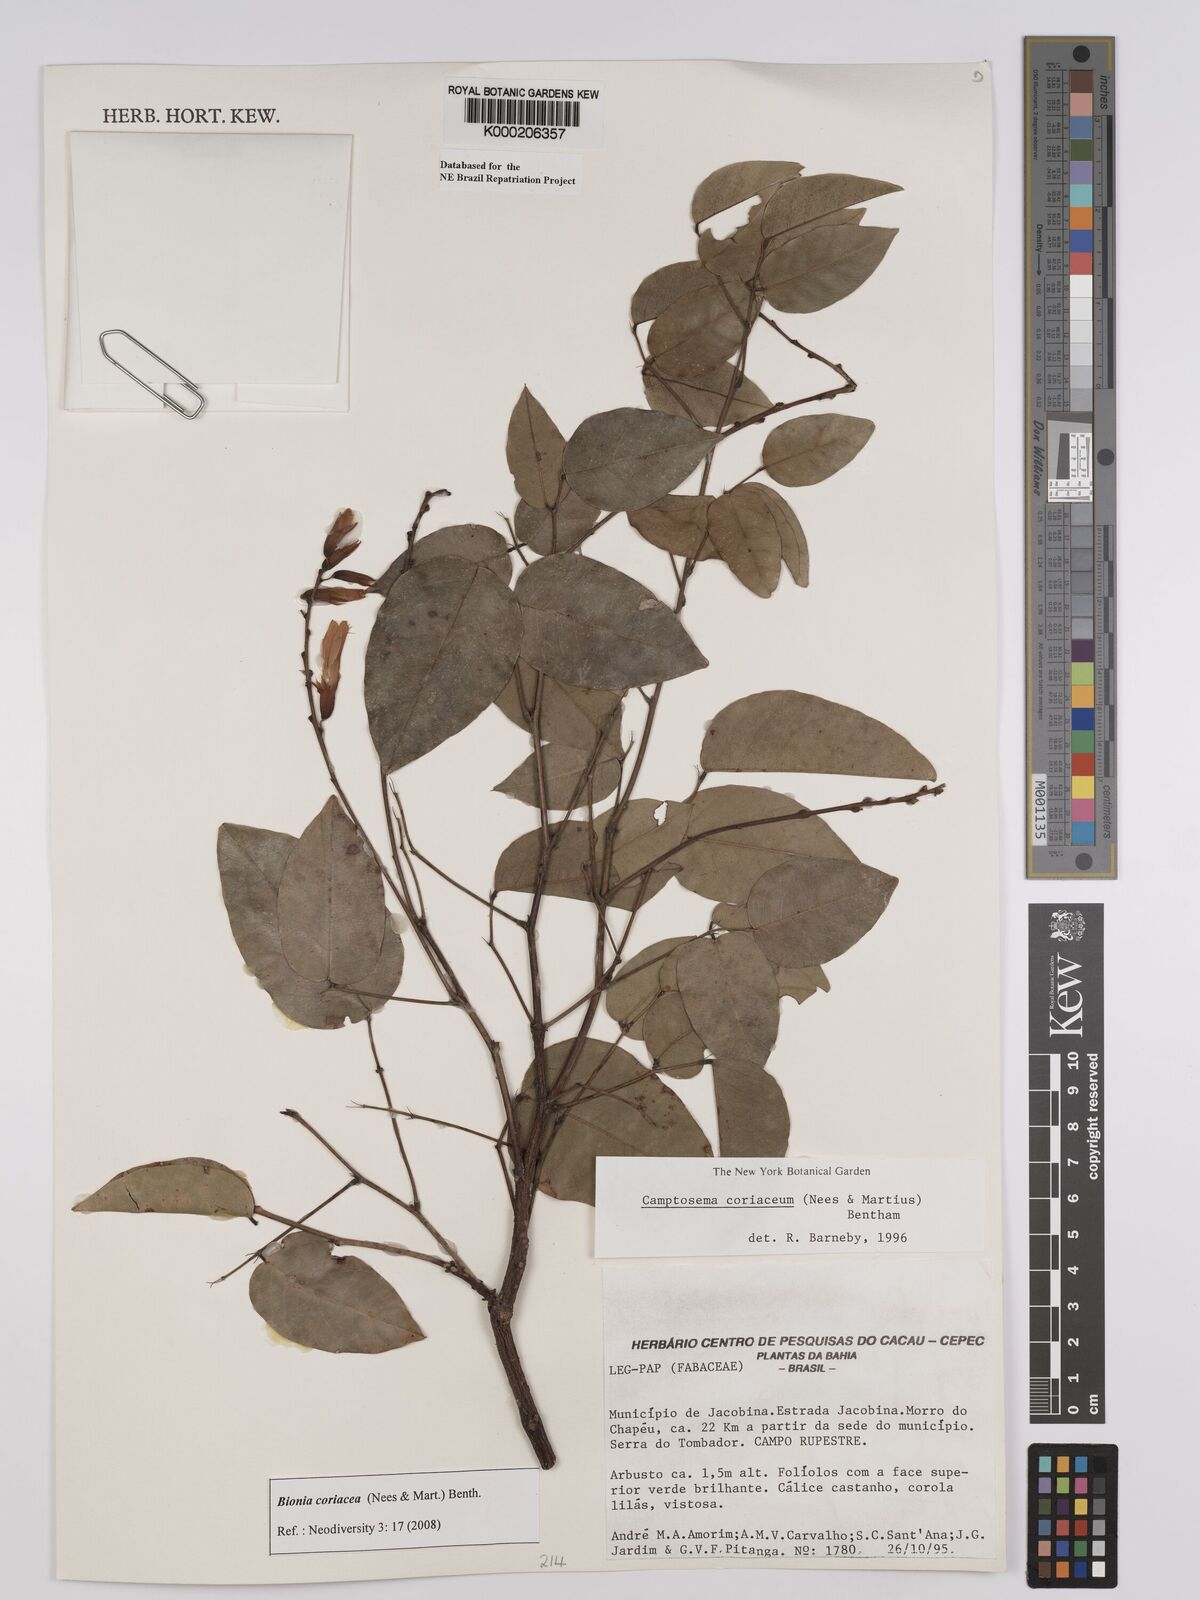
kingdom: Plantae
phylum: Tracheophyta
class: Magnoliopsida
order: Fabales
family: Fabaceae
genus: Camptosema
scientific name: Camptosema coriaceum
